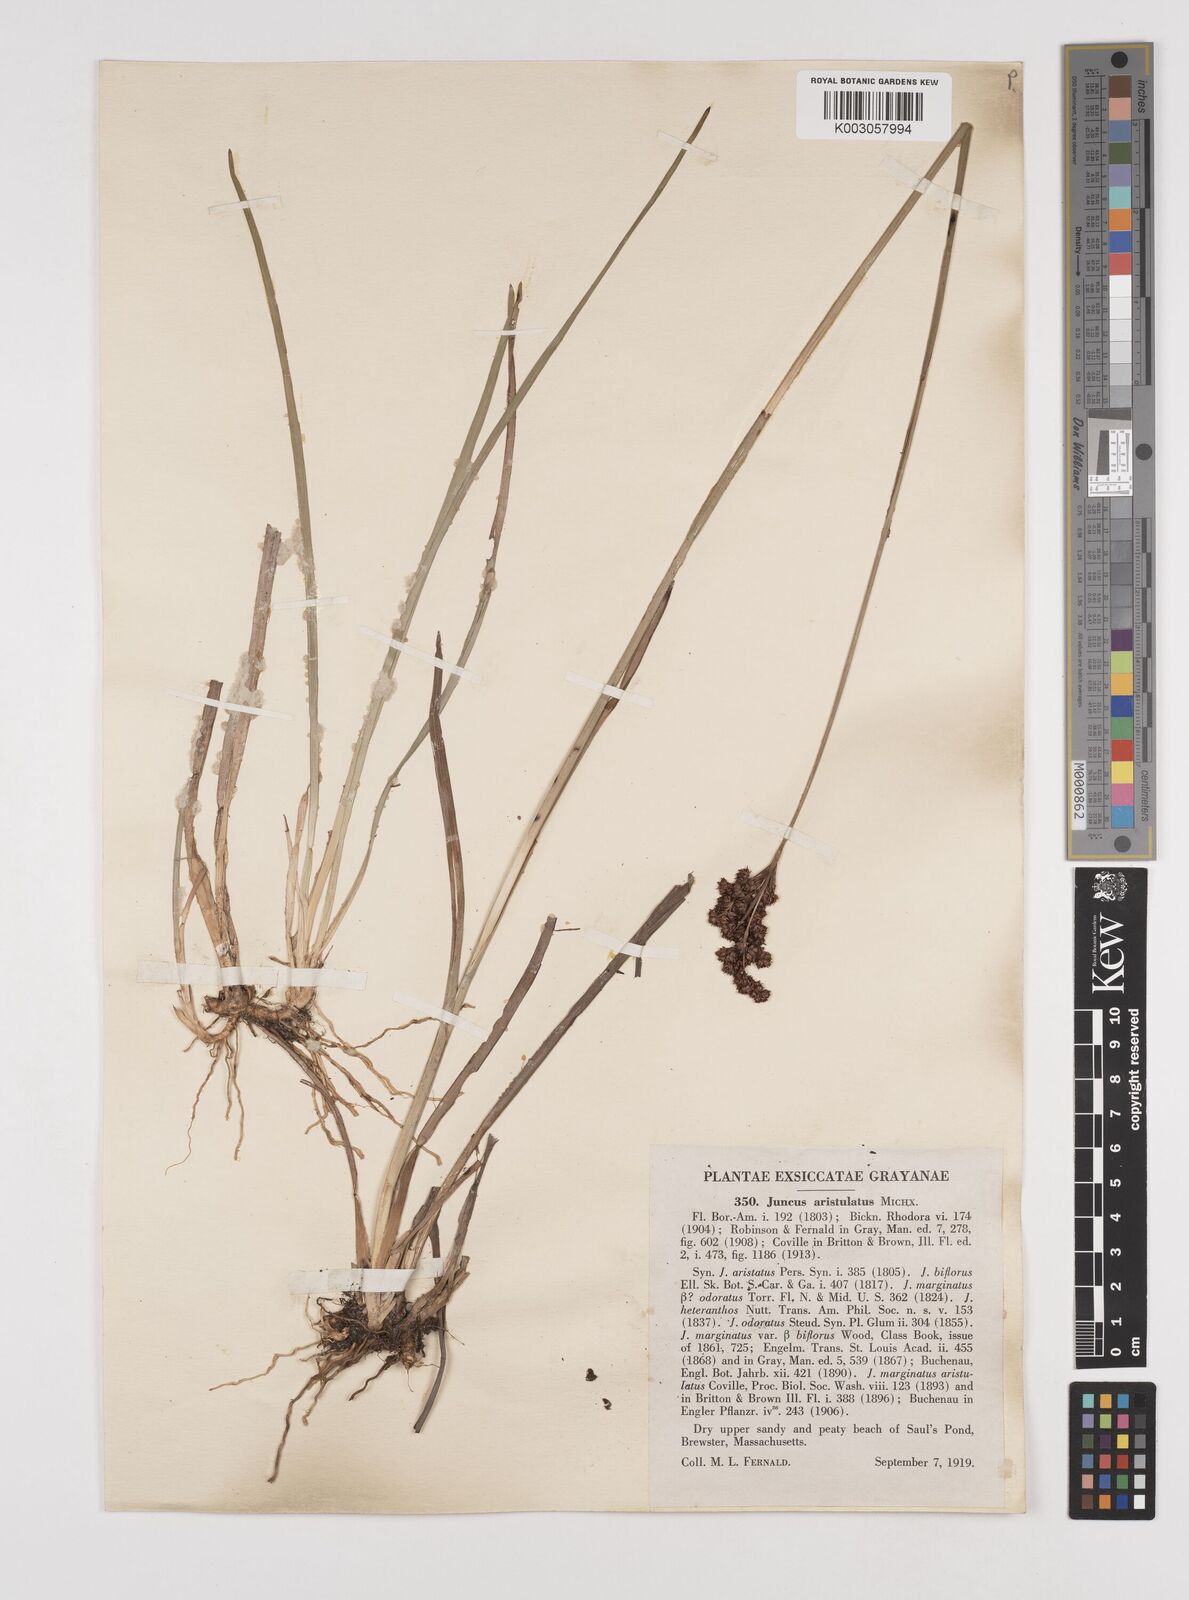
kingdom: Plantae
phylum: Tracheophyta
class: Liliopsida
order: Poales
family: Juncaceae
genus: Juncus
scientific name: Juncus marginatus
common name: Grass-leaf rush
